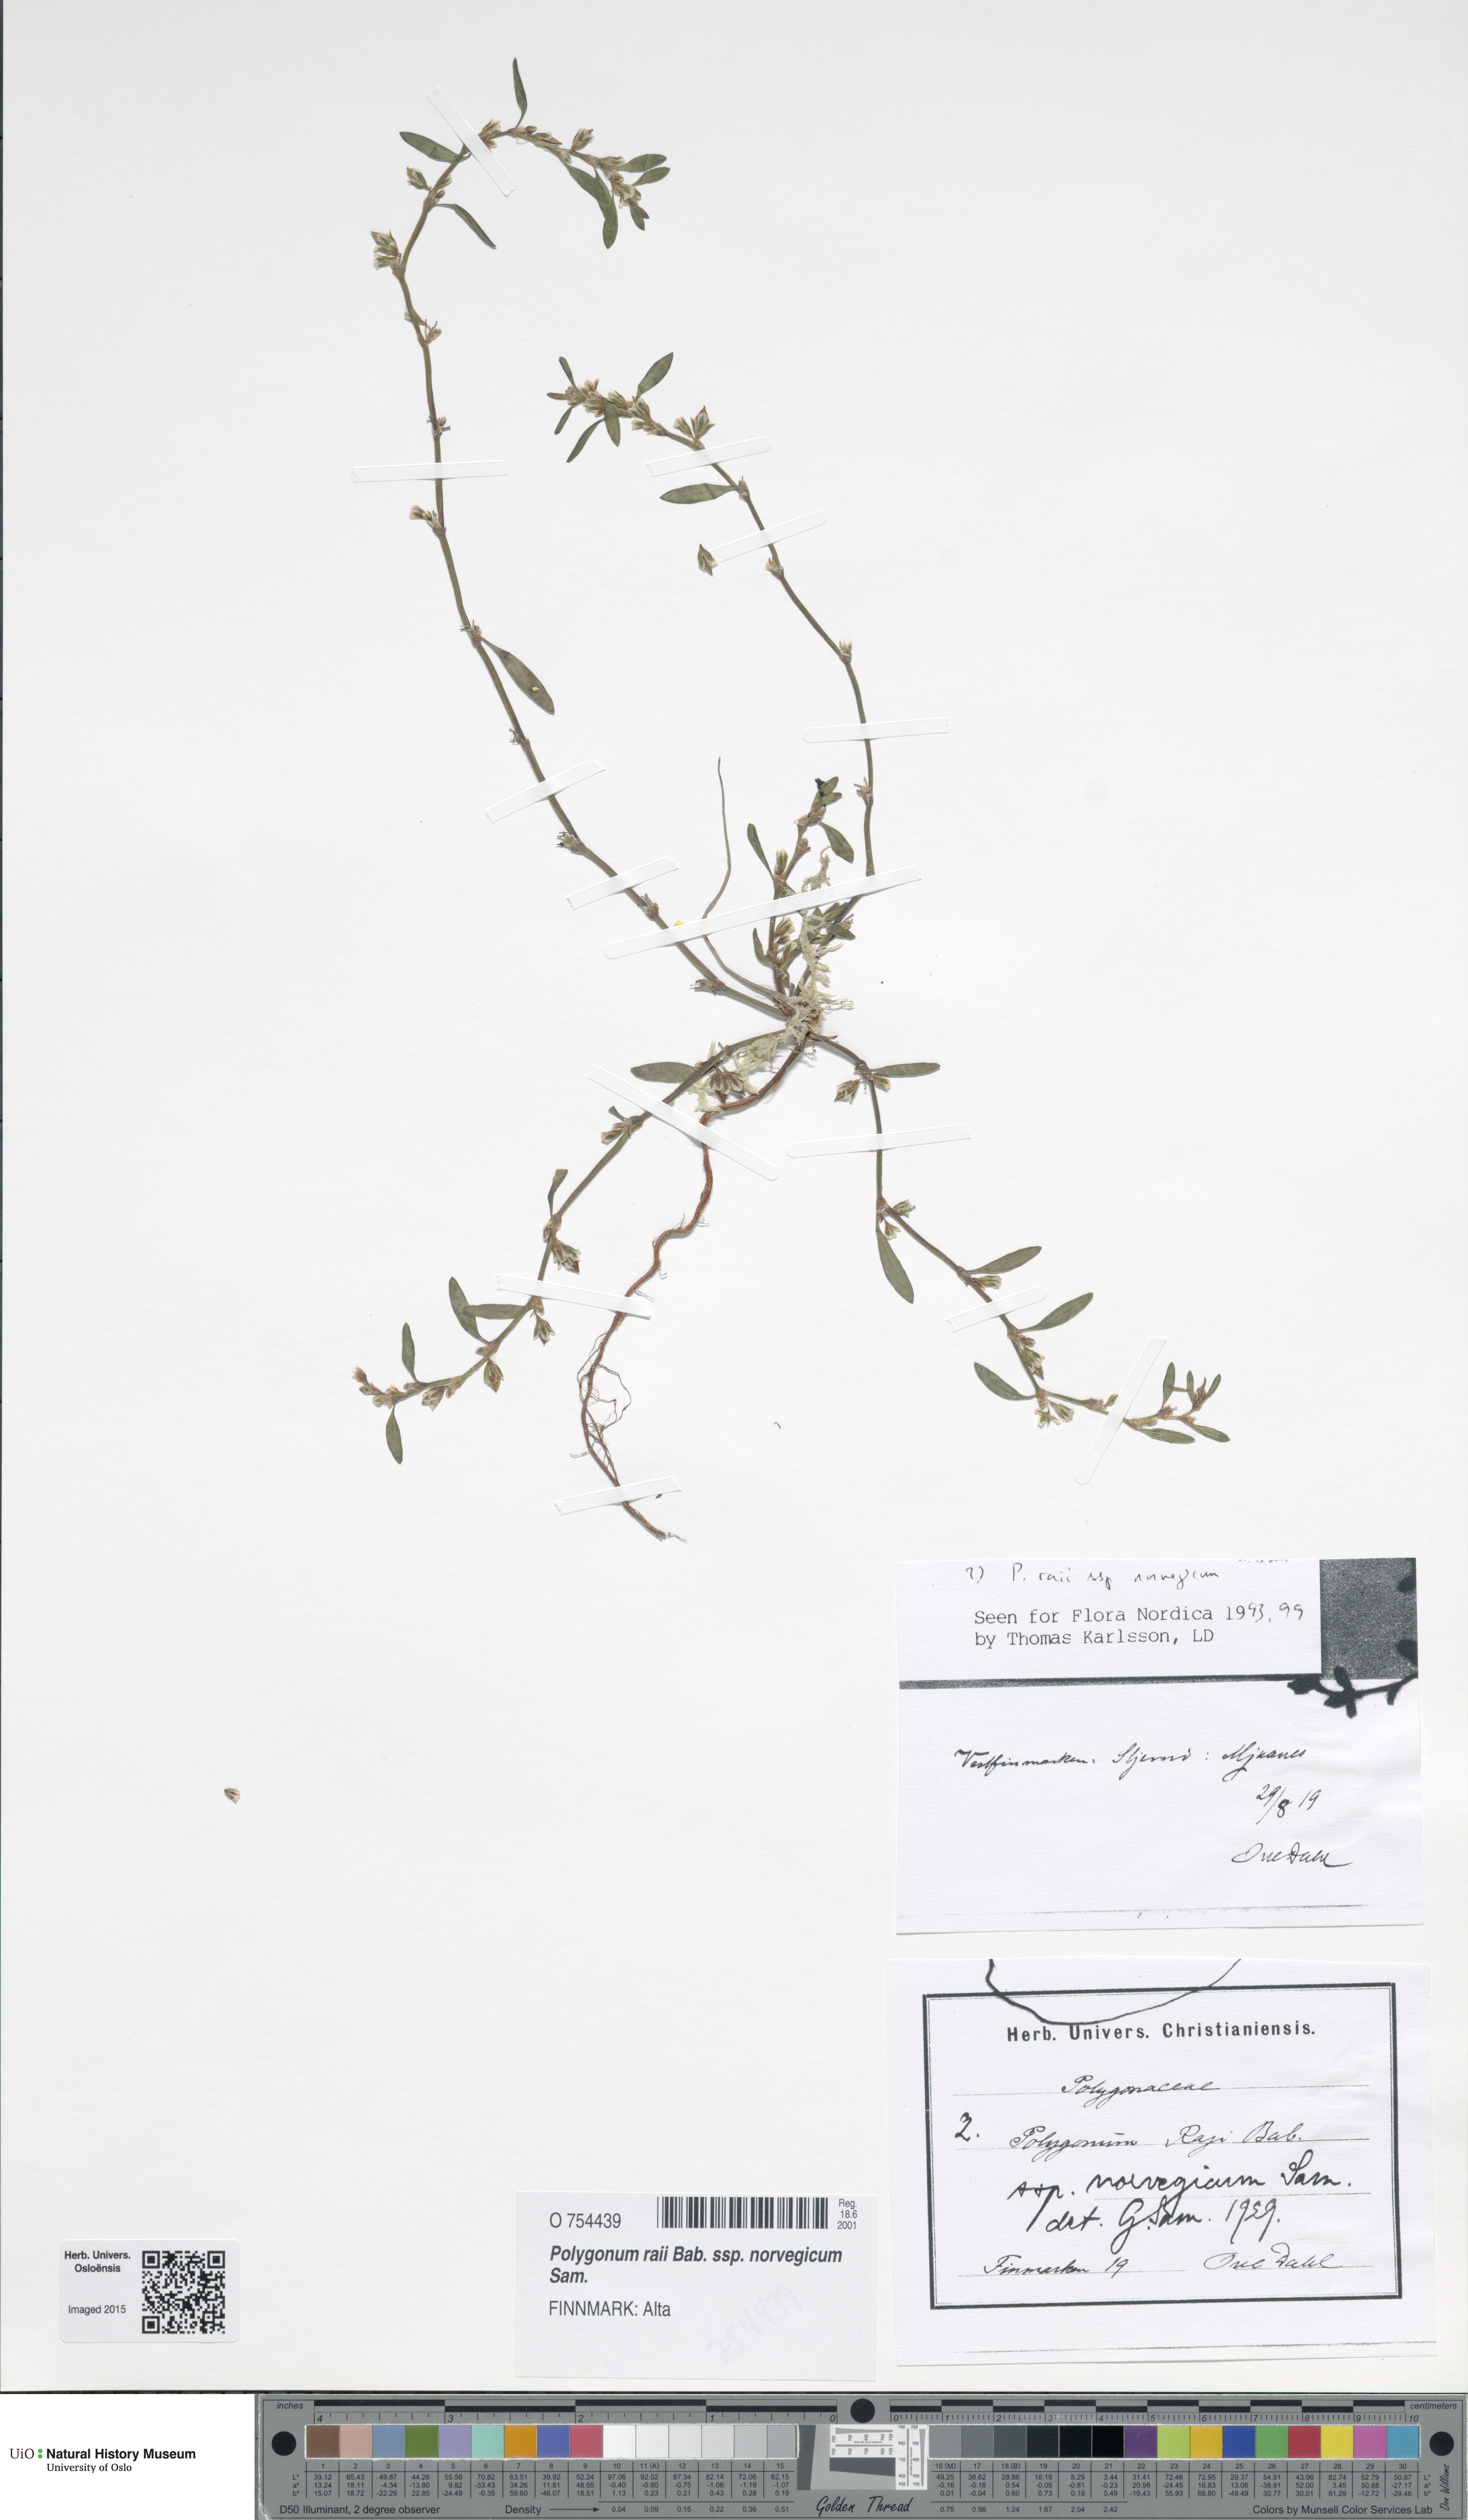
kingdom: Plantae
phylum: Tracheophyta
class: Magnoliopsida
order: Caryophyllales
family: Polygonaceae
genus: Polygonum
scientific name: Polygonum norvegicum
